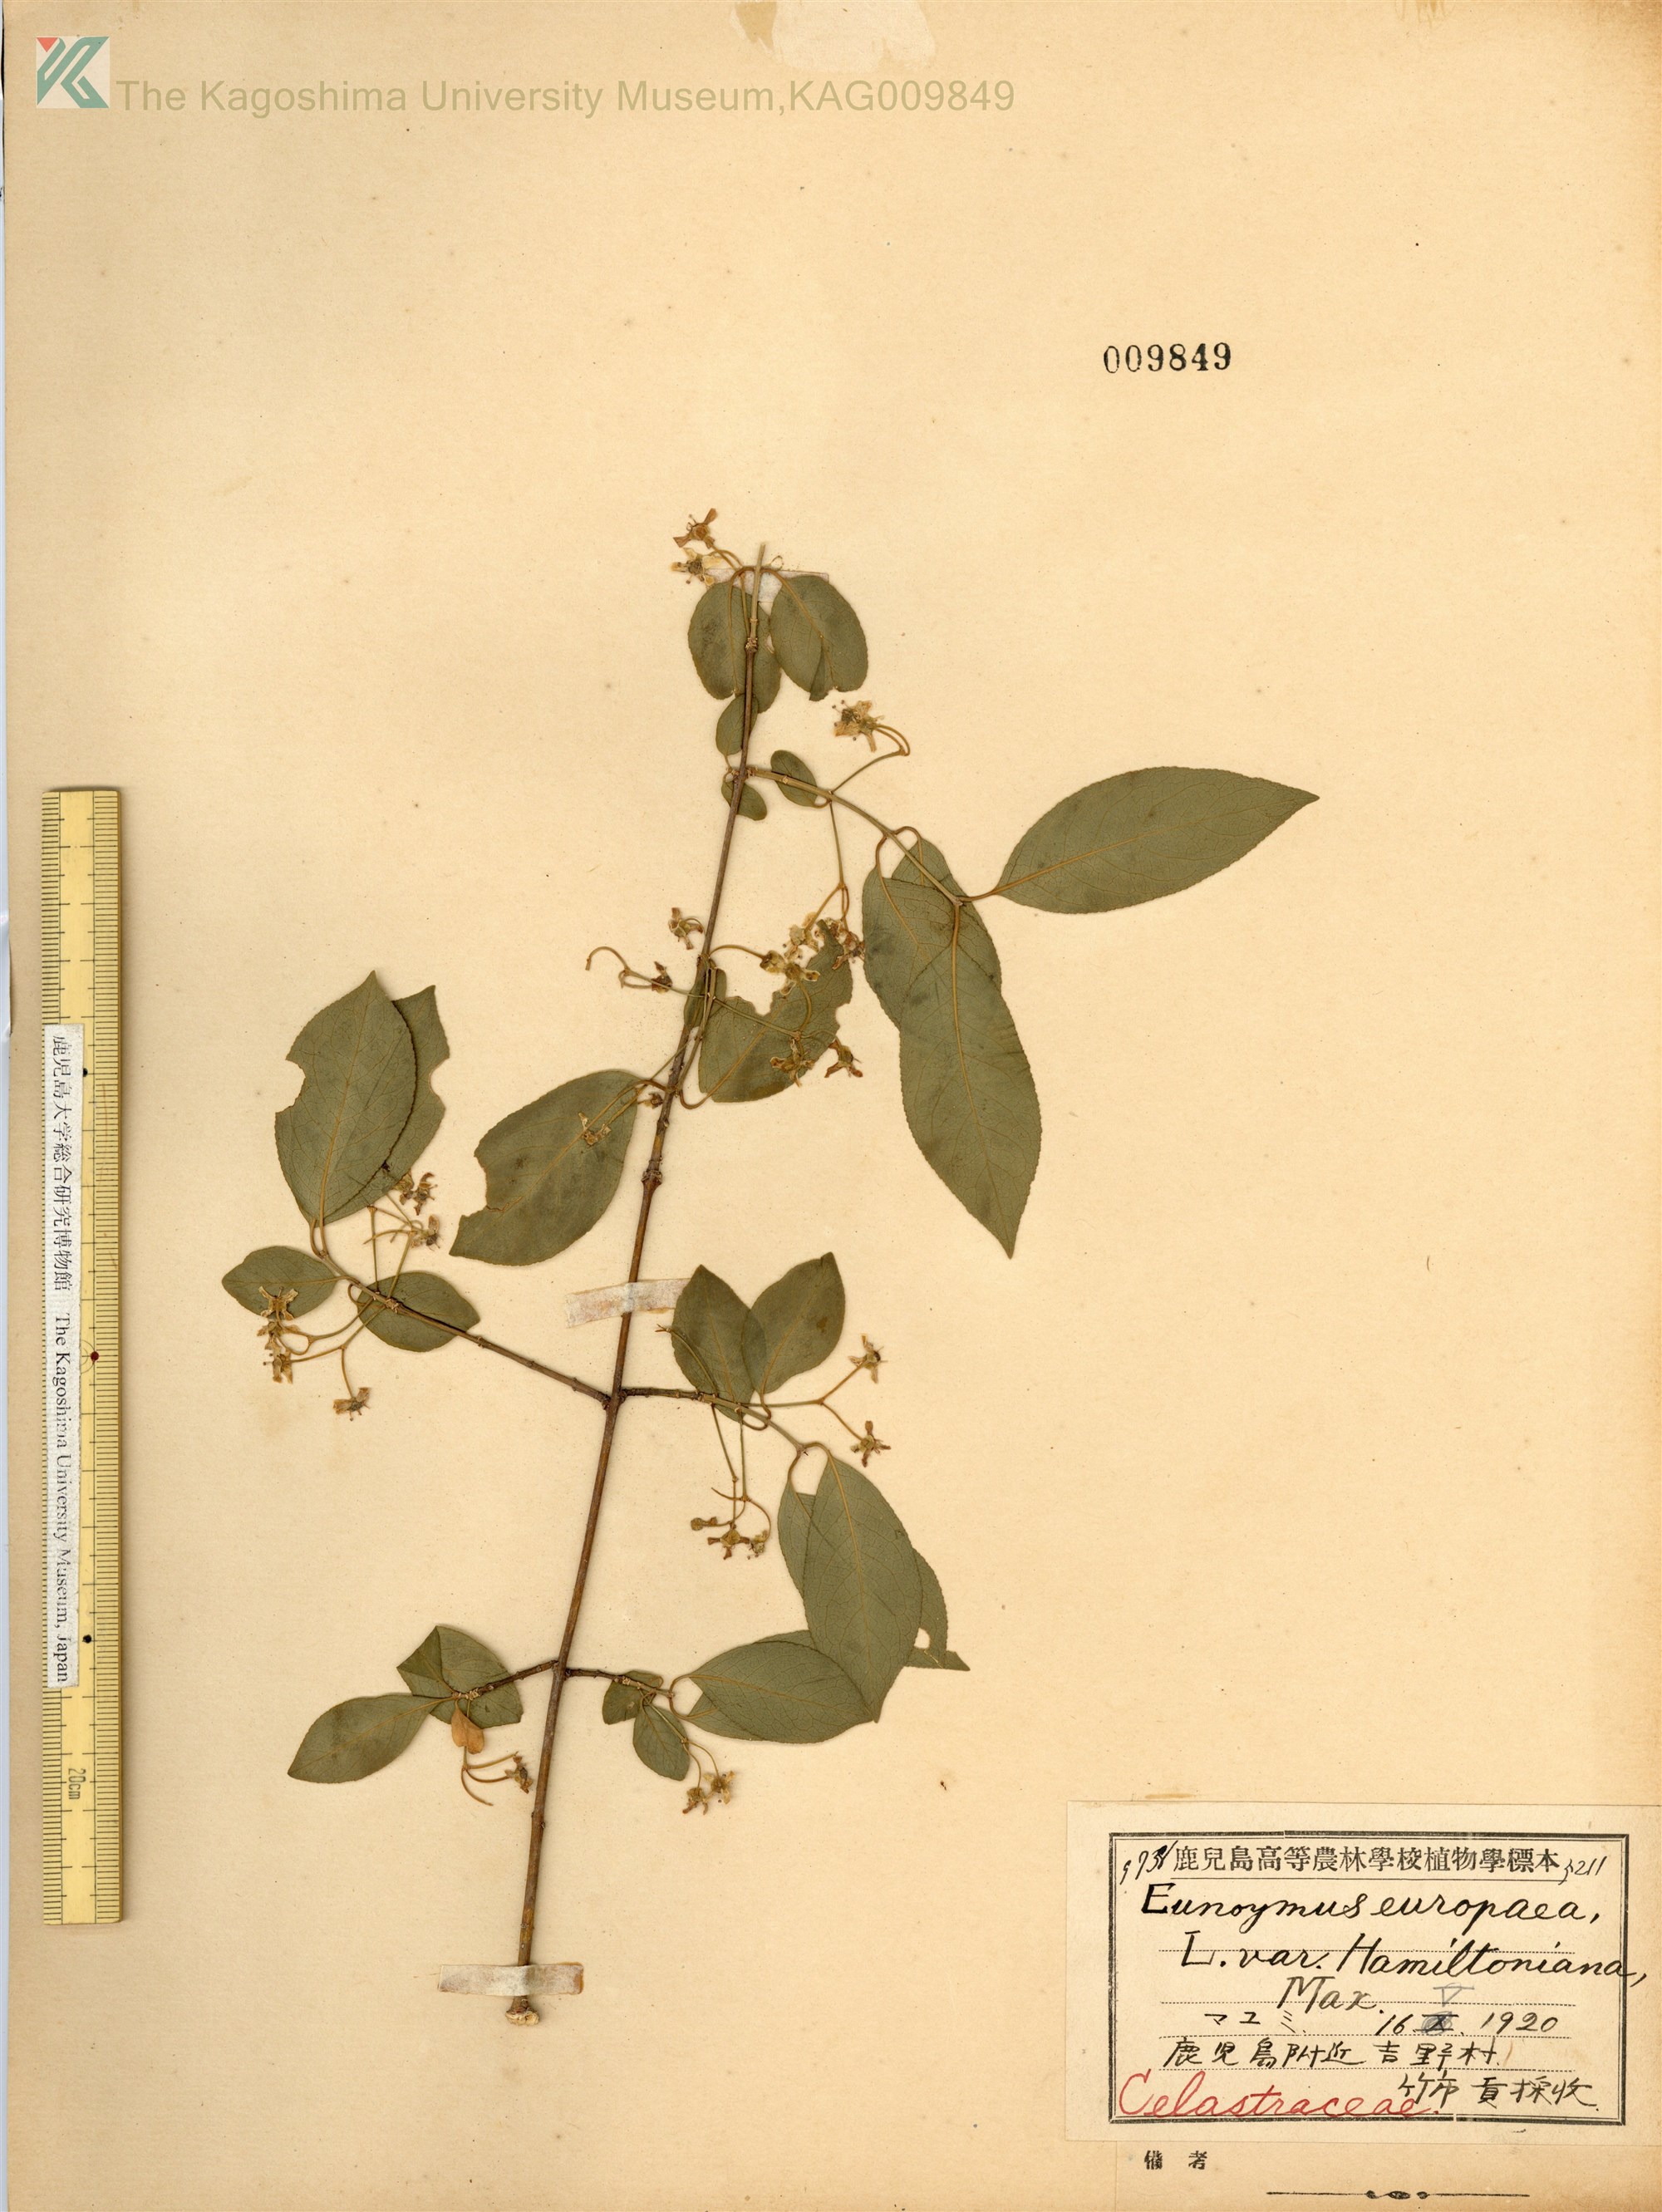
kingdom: Plantae
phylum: Tracheophyta
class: Magnoliopsida
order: Celastrales
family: Celastraceae
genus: Euonymus
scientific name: Euonymus hamiltonianus
